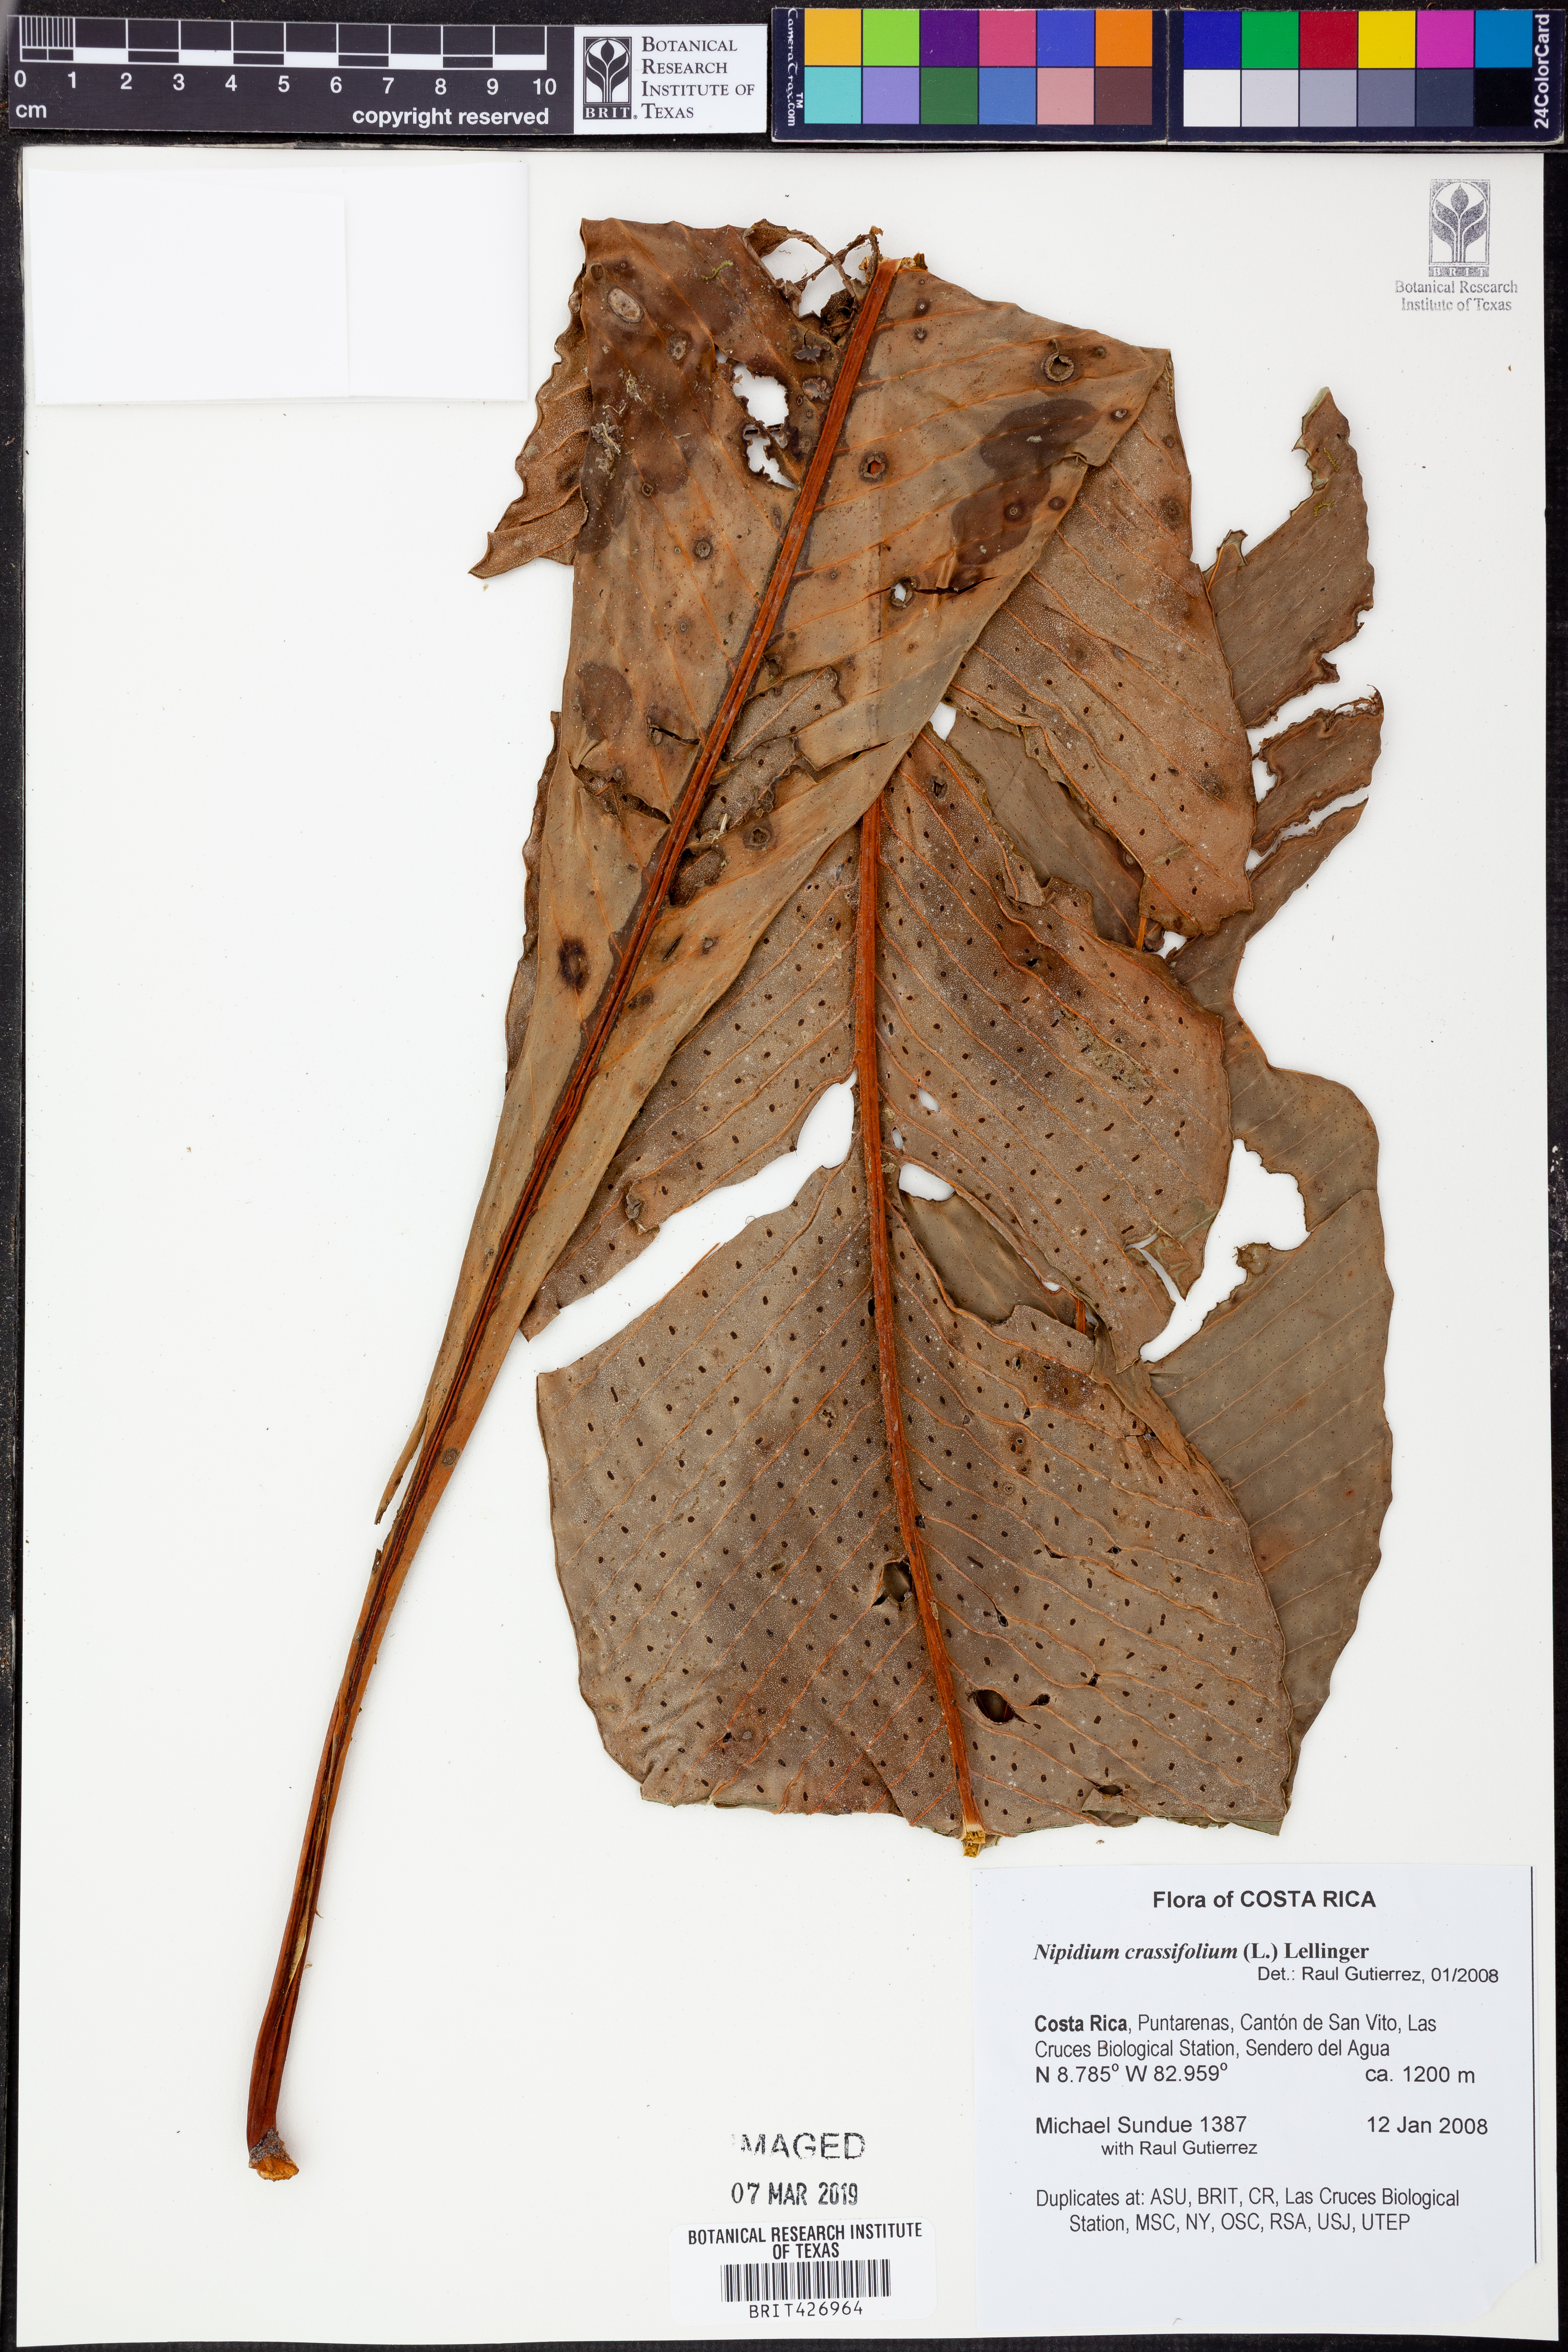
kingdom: Plantae
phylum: Tracheophyta
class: Polypodiopsida
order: Polypodiales
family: Polypodiaceae
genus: Niphidium
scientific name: Niphidium crassifolium
